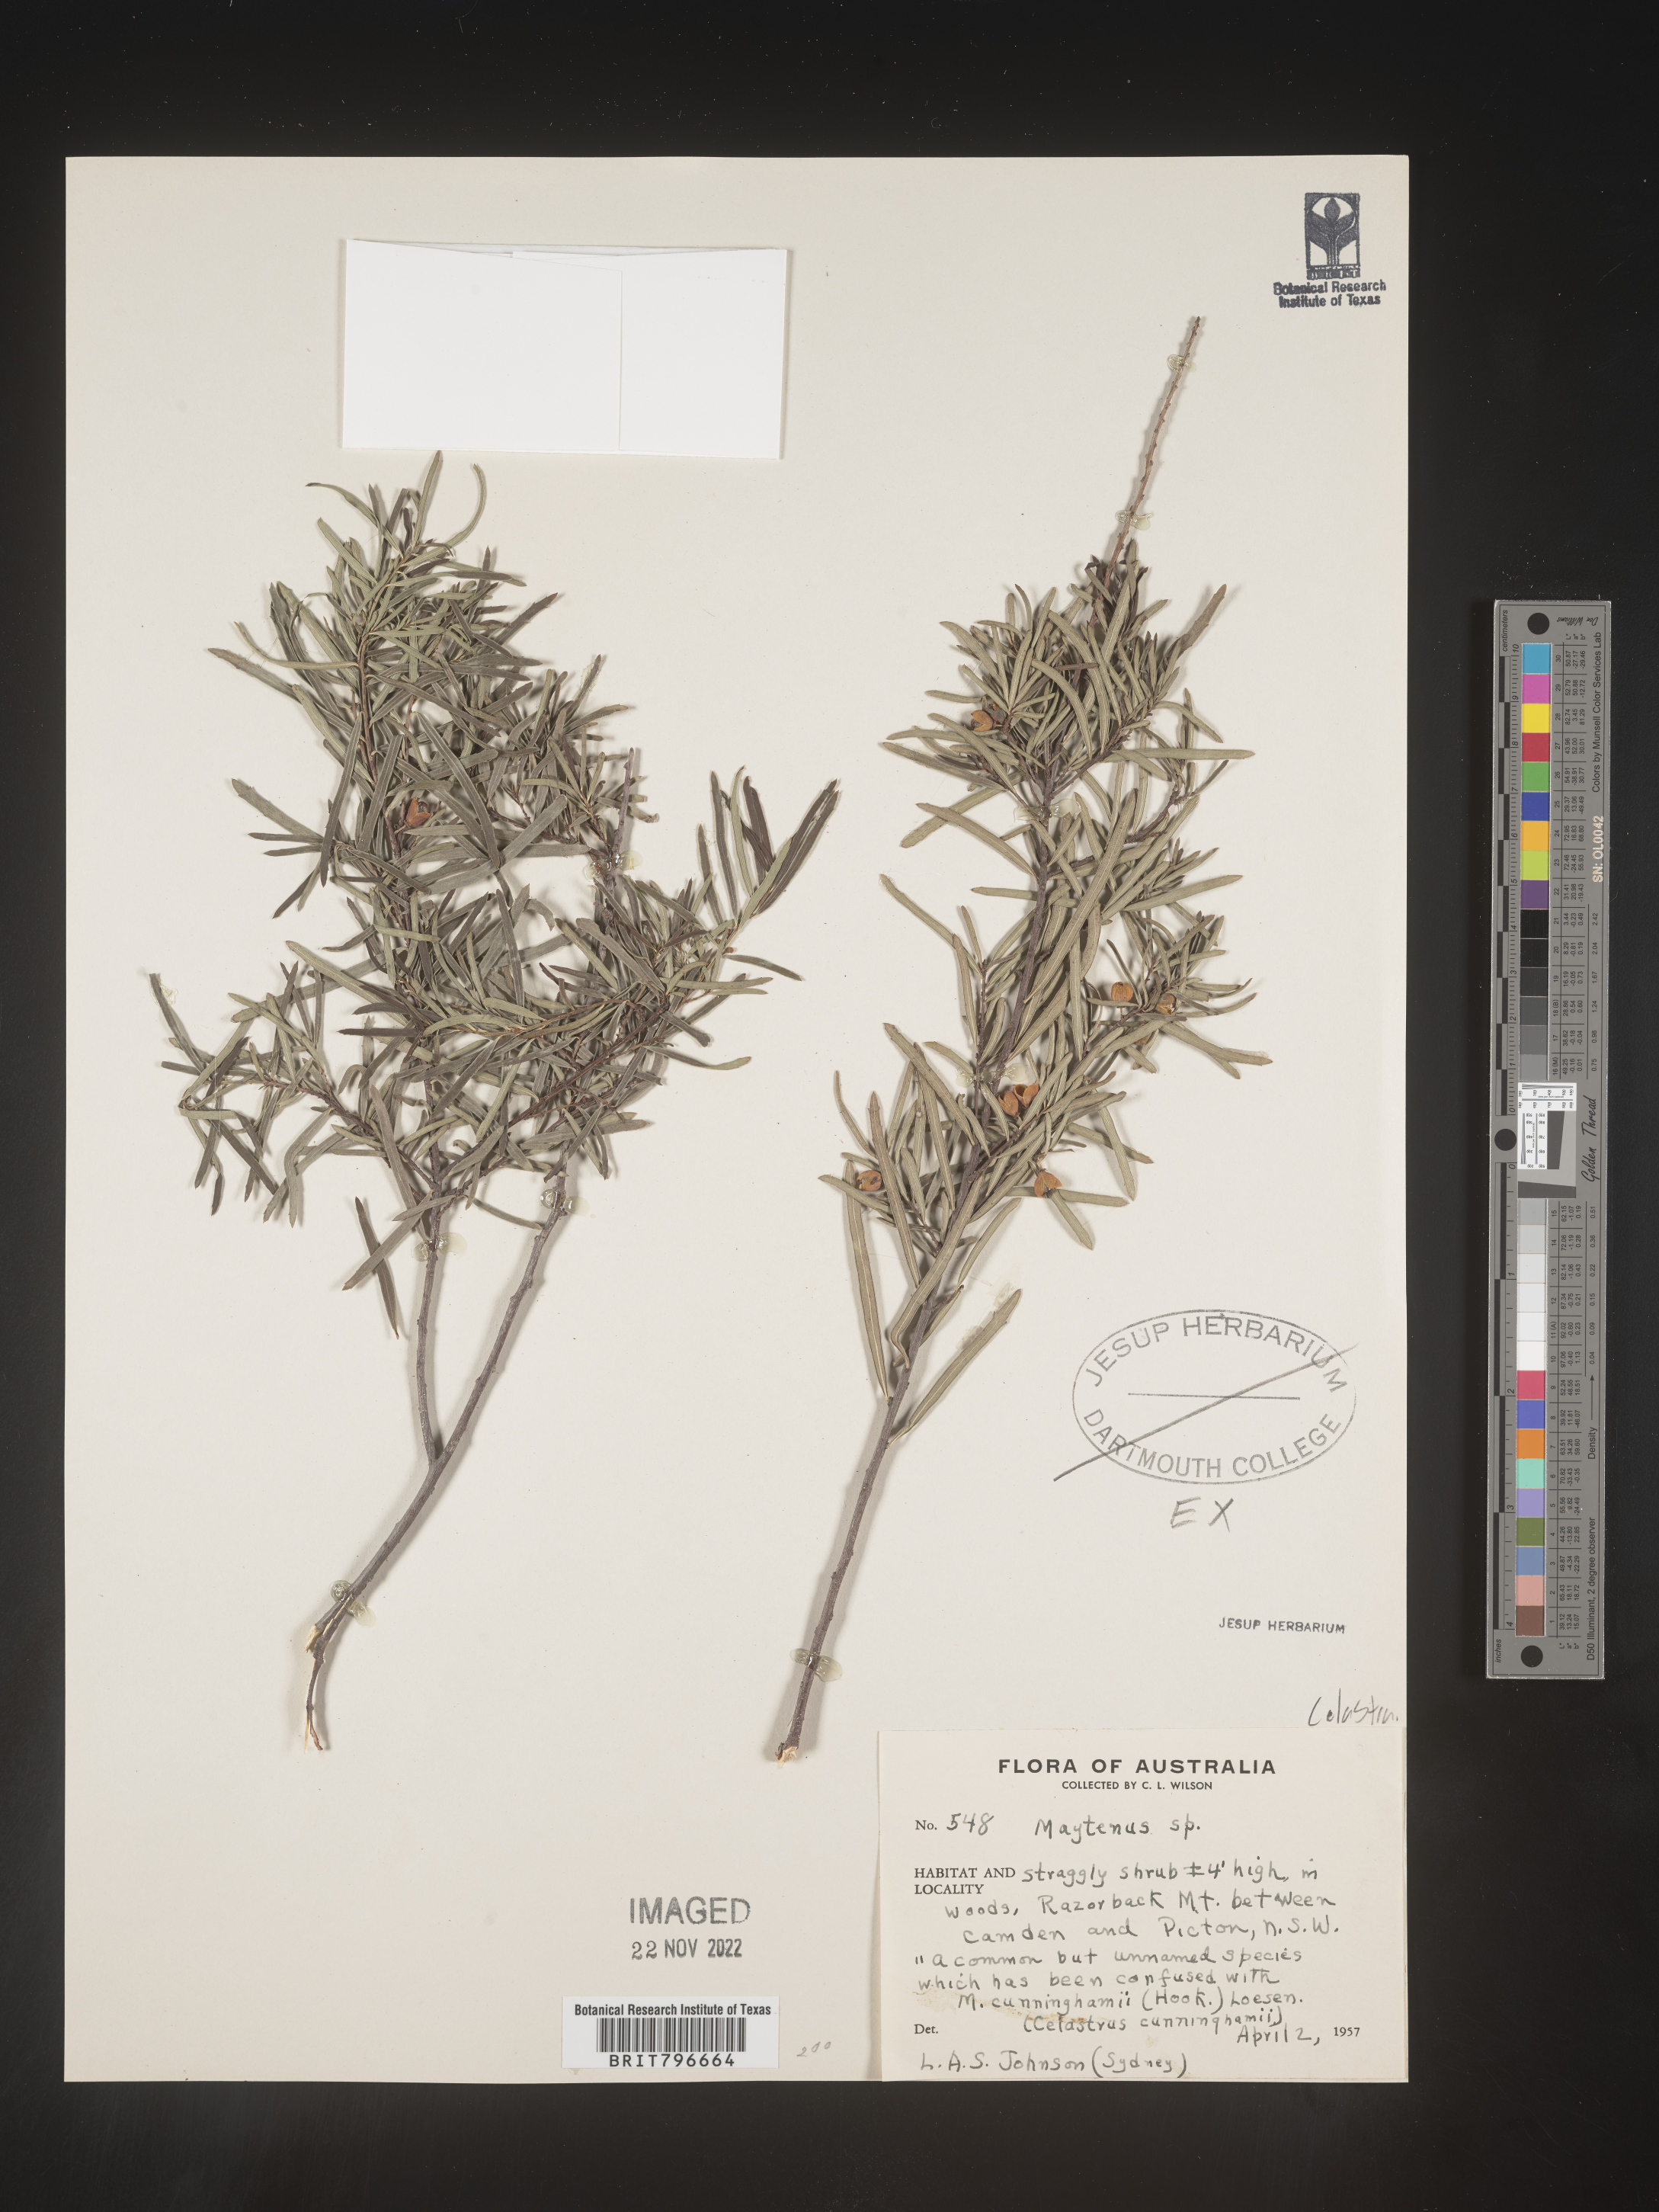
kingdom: Plantae
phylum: Tracheophyta
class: Magnoliopsida
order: Celastrales
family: Celastraceae
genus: Maytenus
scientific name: Maytenus
